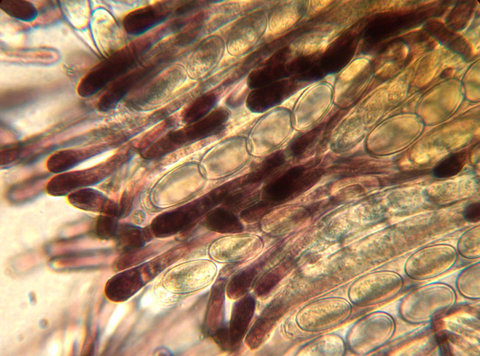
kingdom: Fungi
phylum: Ascomycota
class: Pezizomycetes
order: Pezizales
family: Pyronemataceae
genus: Cheilymenia
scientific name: Cheilymenia fimicola
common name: møg-hårbæger
